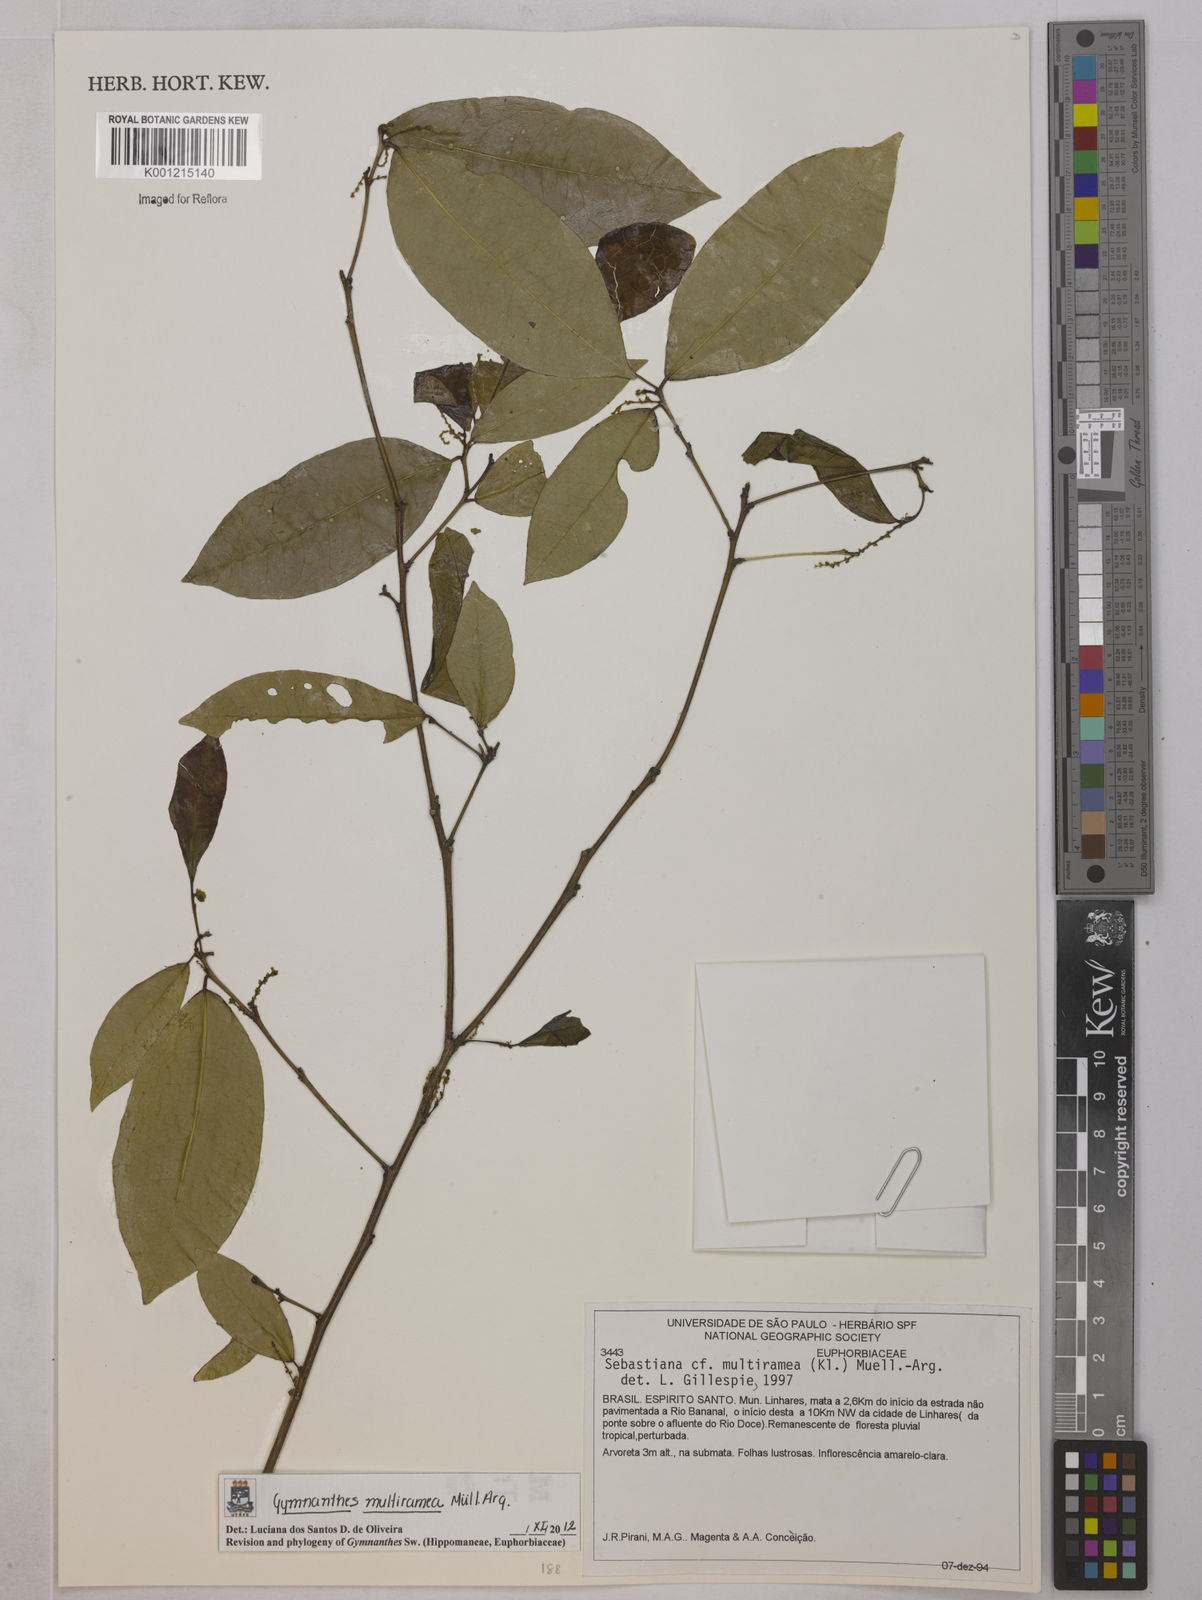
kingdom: Plantae
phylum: Tracheophyta
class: Magnoliopsida
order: Malpighiales
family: Euphorbiaceae
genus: Gymnanthes
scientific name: Gymnanthes
